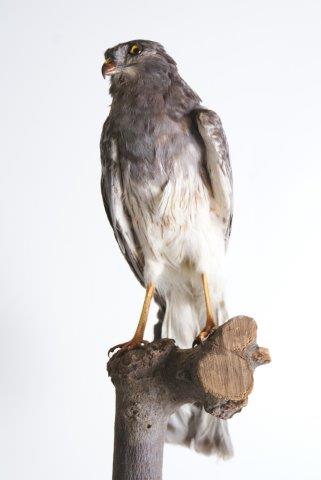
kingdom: Animalia
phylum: Chordata
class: Aves
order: Accipitriformes
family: Accipitridae
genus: Circus
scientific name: Circus pygargus
